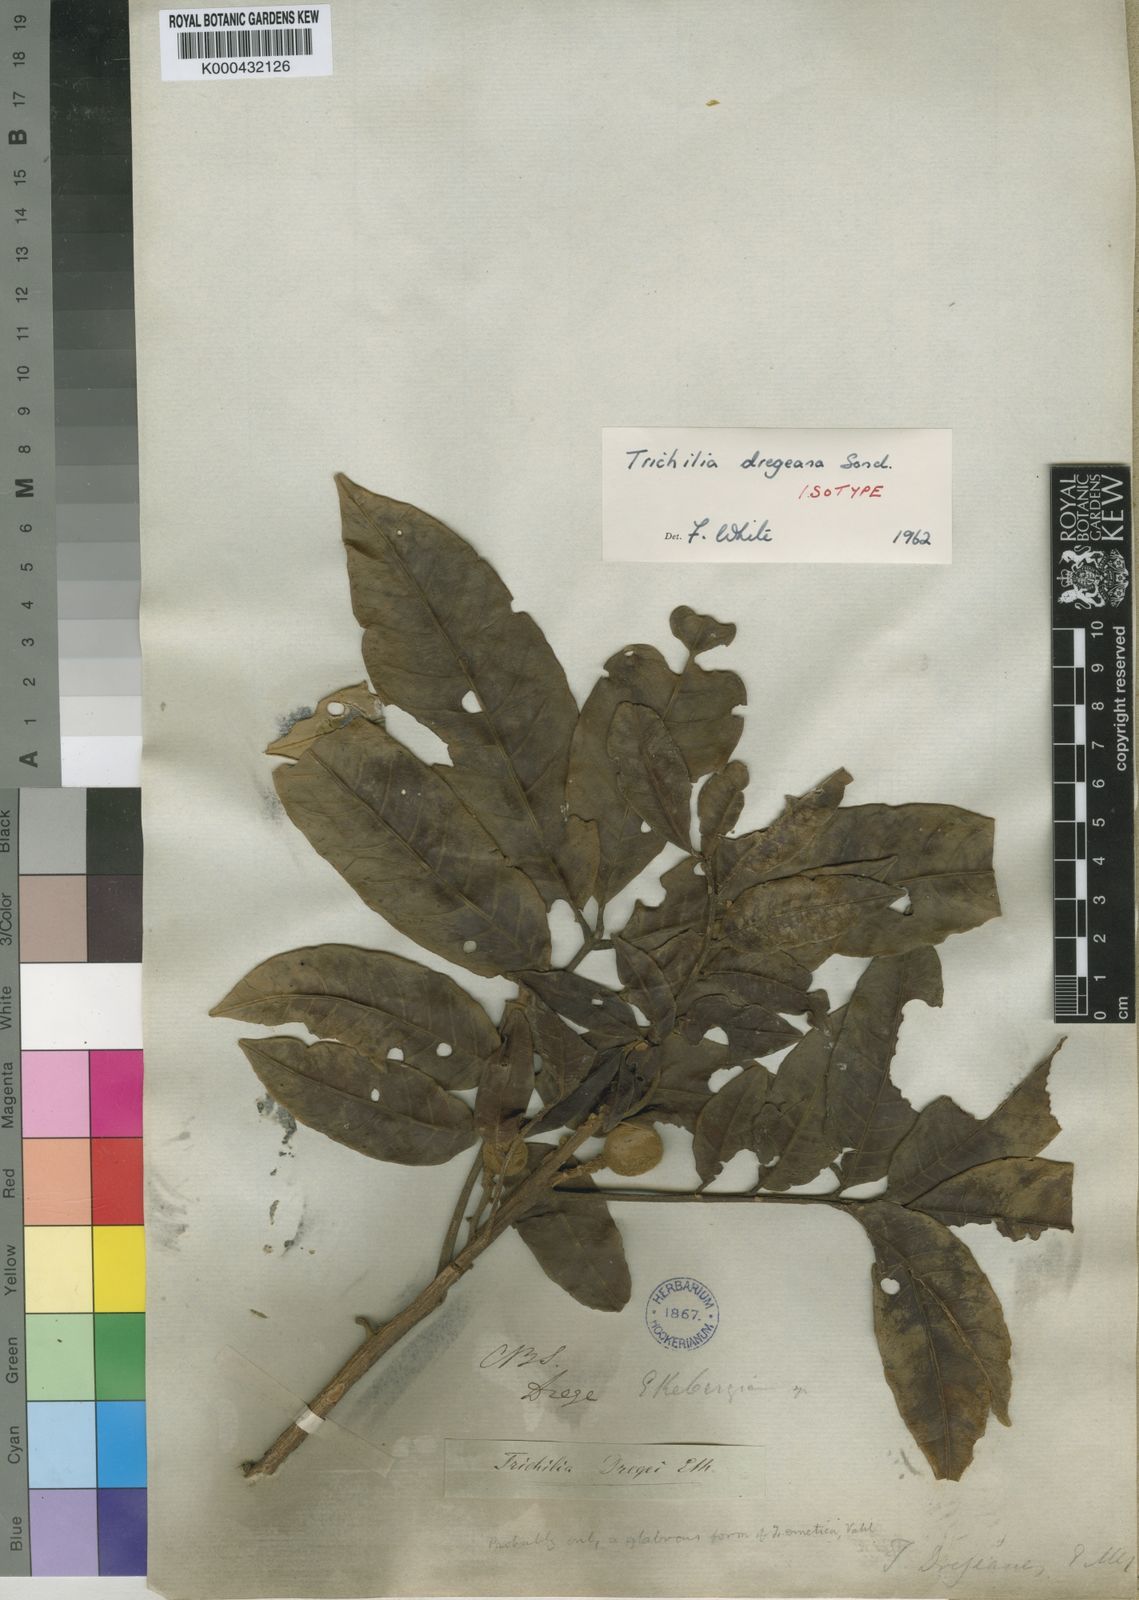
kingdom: Plantae
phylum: Tracheophyta
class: Magnoliopsida
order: Sapindales
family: Meliaceae
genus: Trichilia
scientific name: Trichilia dregeana
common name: Christmas-bells
